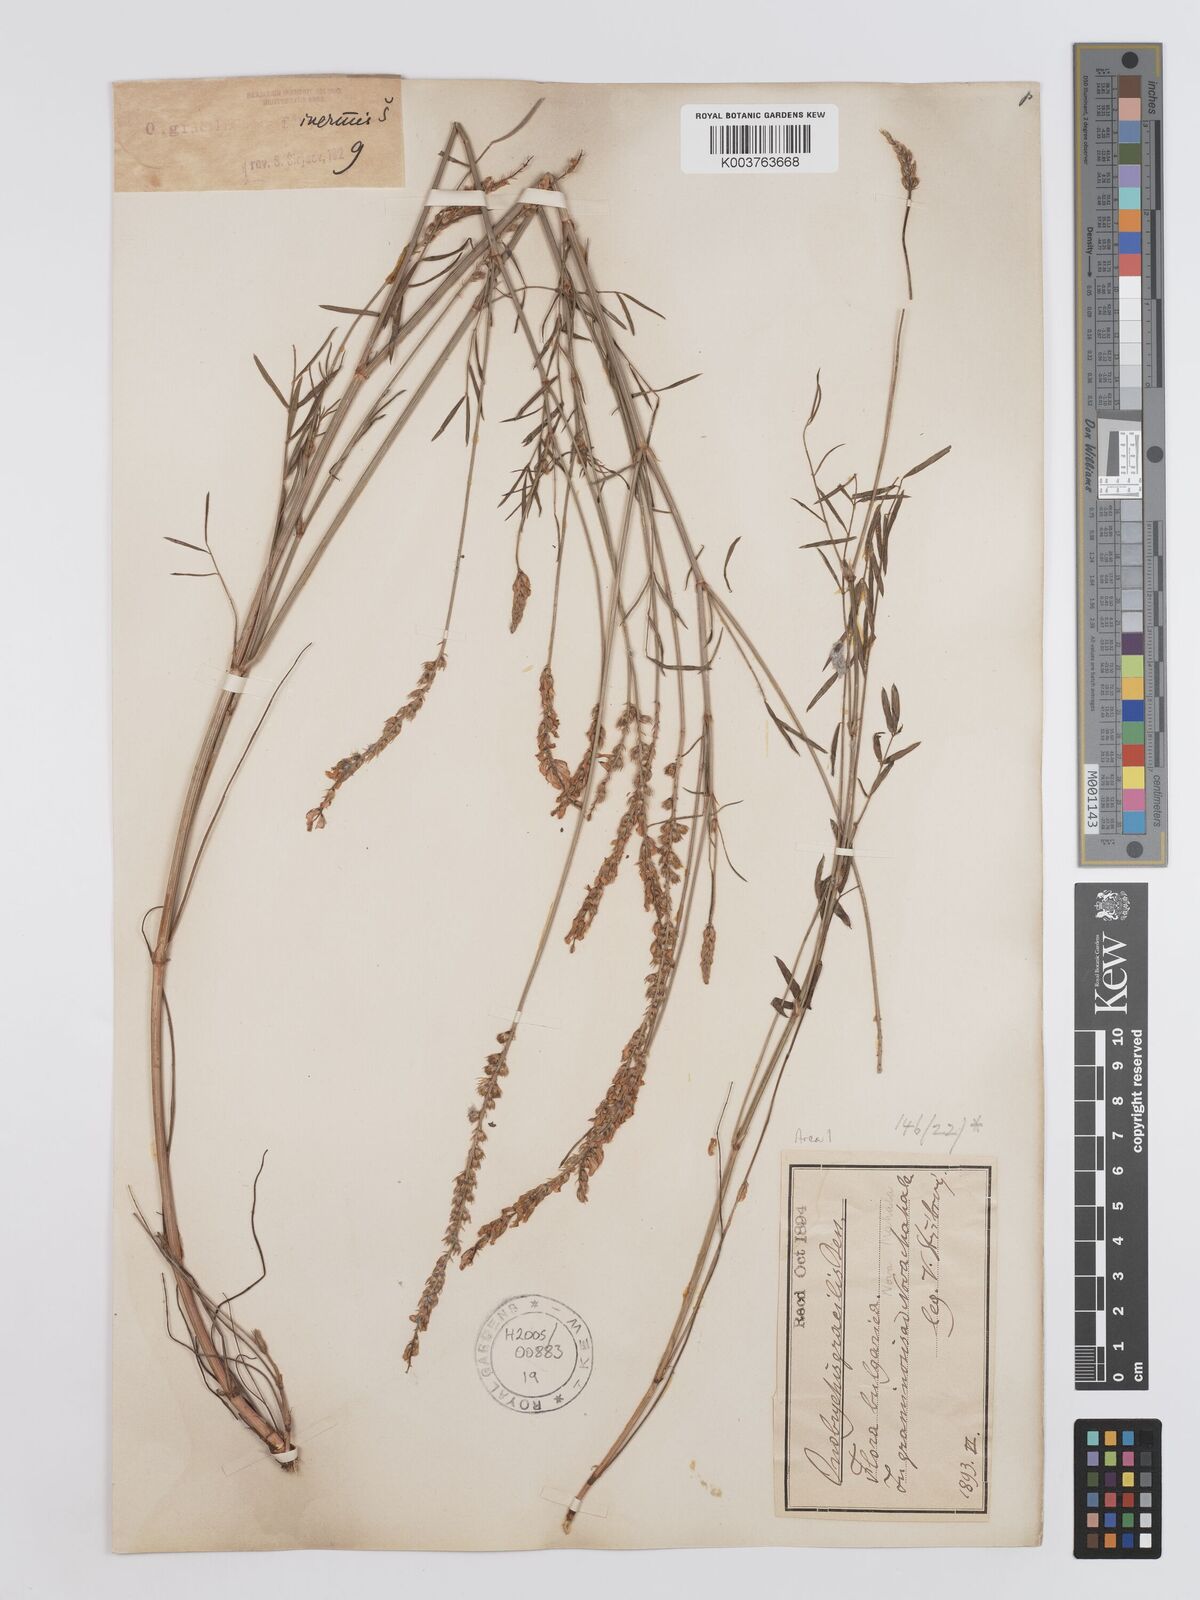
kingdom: Plantae
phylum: Tracheophyta
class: Magnoliopsida
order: Fabales
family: Fabaceae
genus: Onobrychis
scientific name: Onobrychis gracilis
